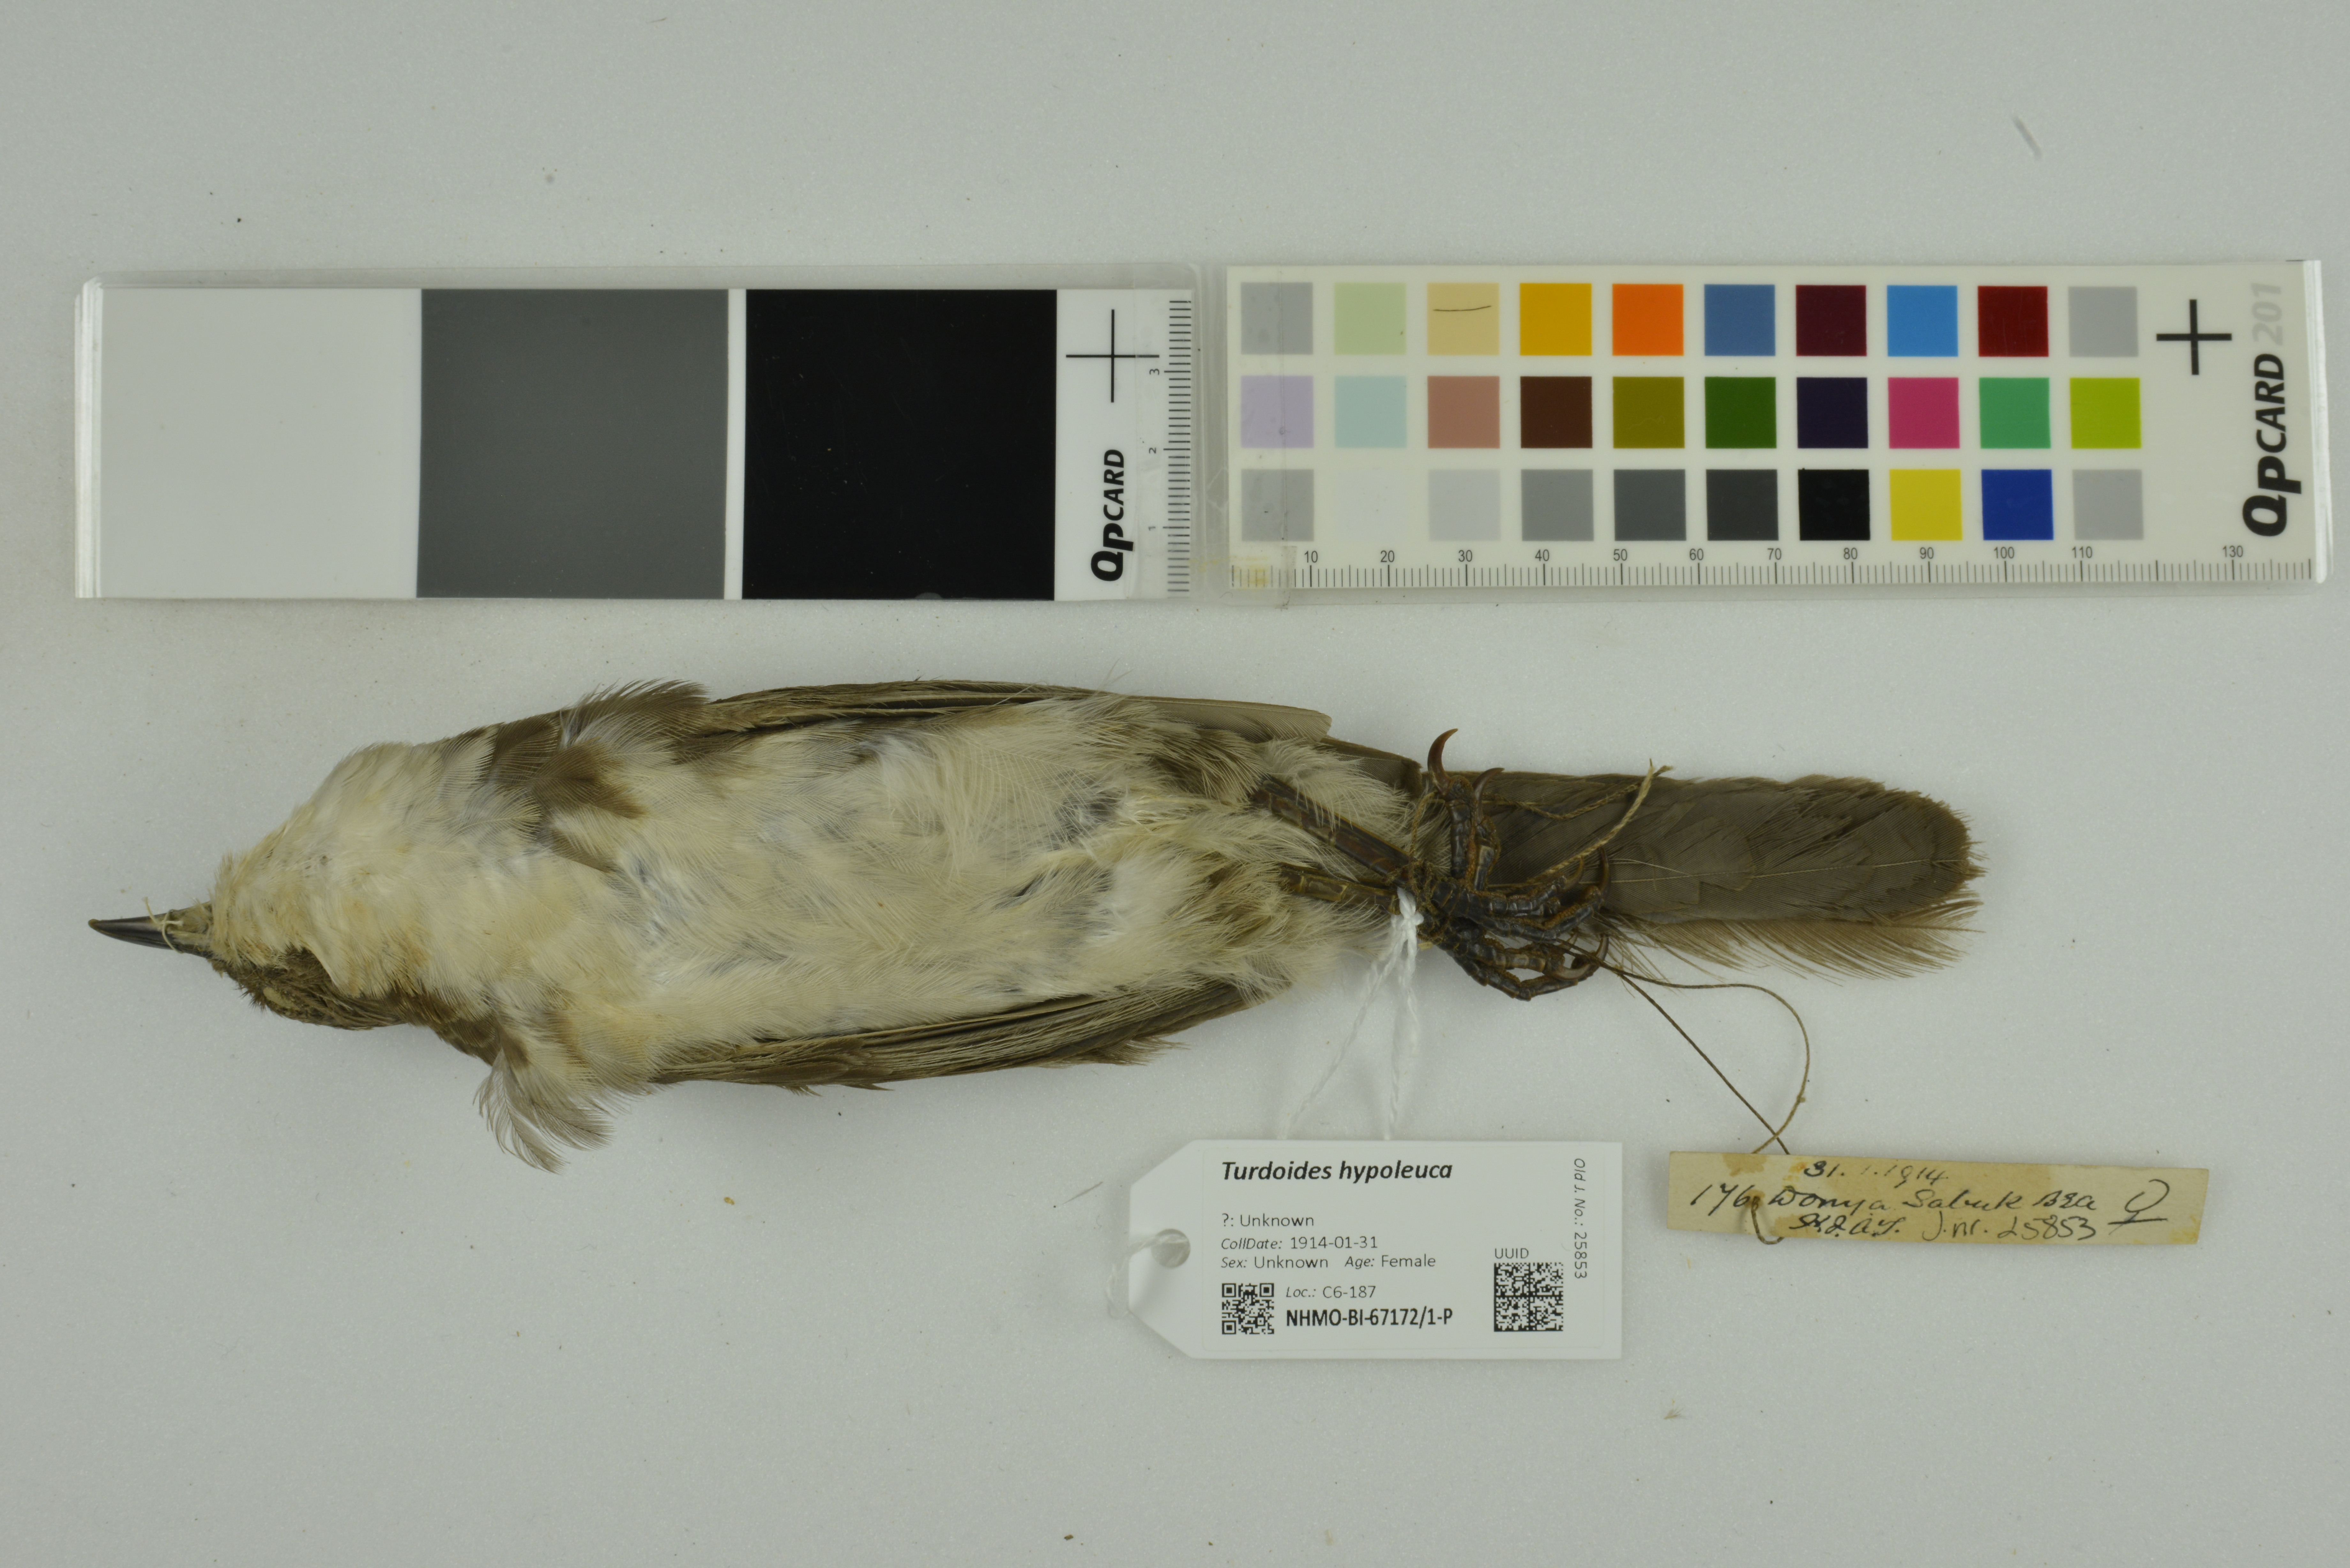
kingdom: Animalia
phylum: Chordata
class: Aves
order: Passeriformes
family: Leiothrichidae
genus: Turdoides
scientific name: Turdoides hypoleuca
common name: Northern pied-babbler
